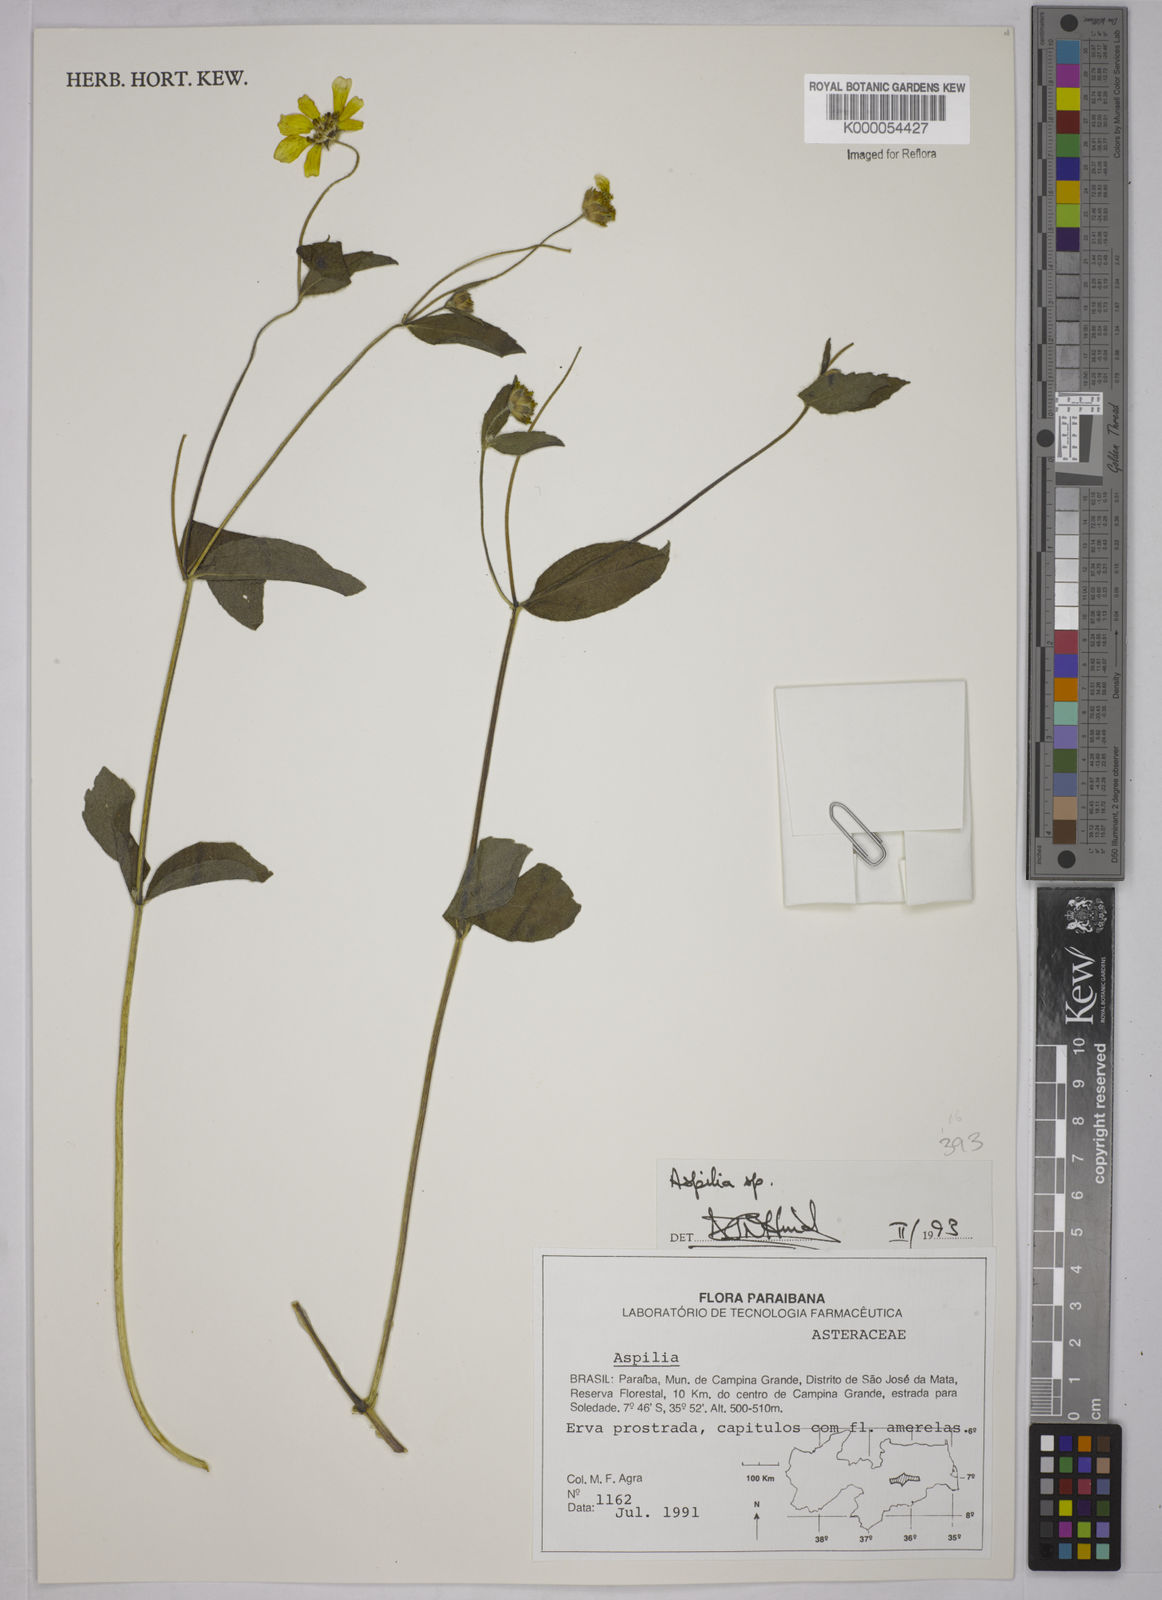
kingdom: Plantae
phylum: Tracheophyta
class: Magnoliopsida
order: Asterales
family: Asteraceae
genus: Aspilia
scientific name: Aspilia
